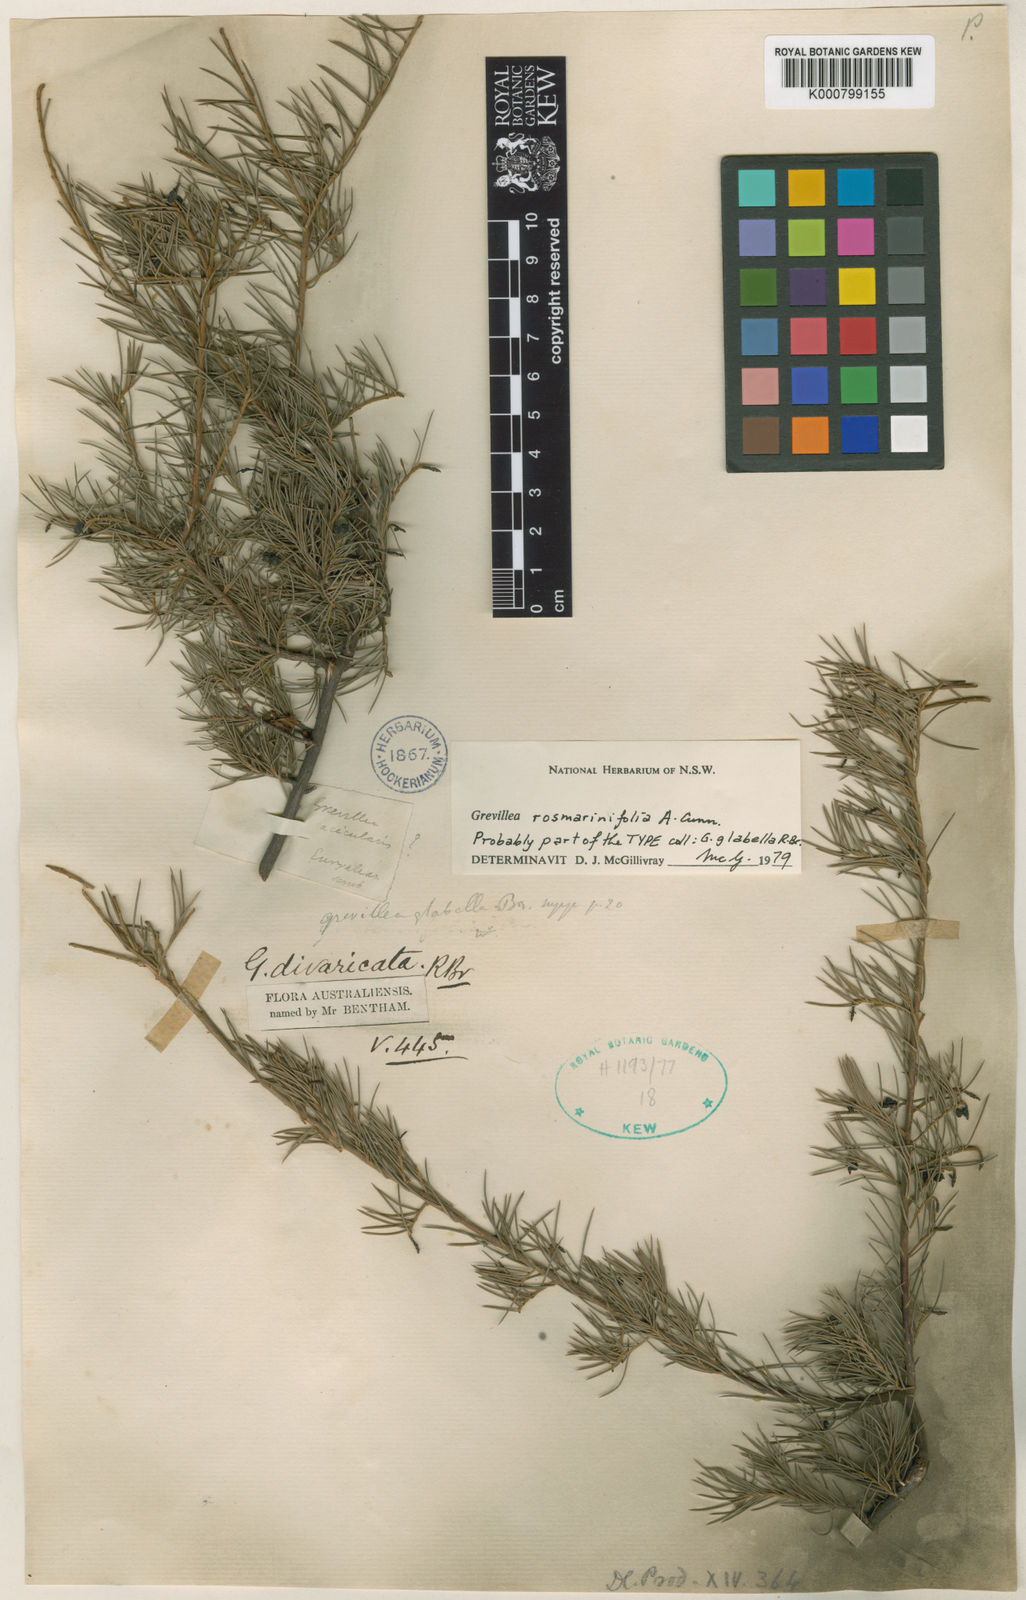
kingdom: Plantae
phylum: Tracheophyta
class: Magnoliopsida
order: Proteales
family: Proteaceae
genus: Grevillea
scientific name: Grevillea rosmarinifolia
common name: Rosemary grevillea
